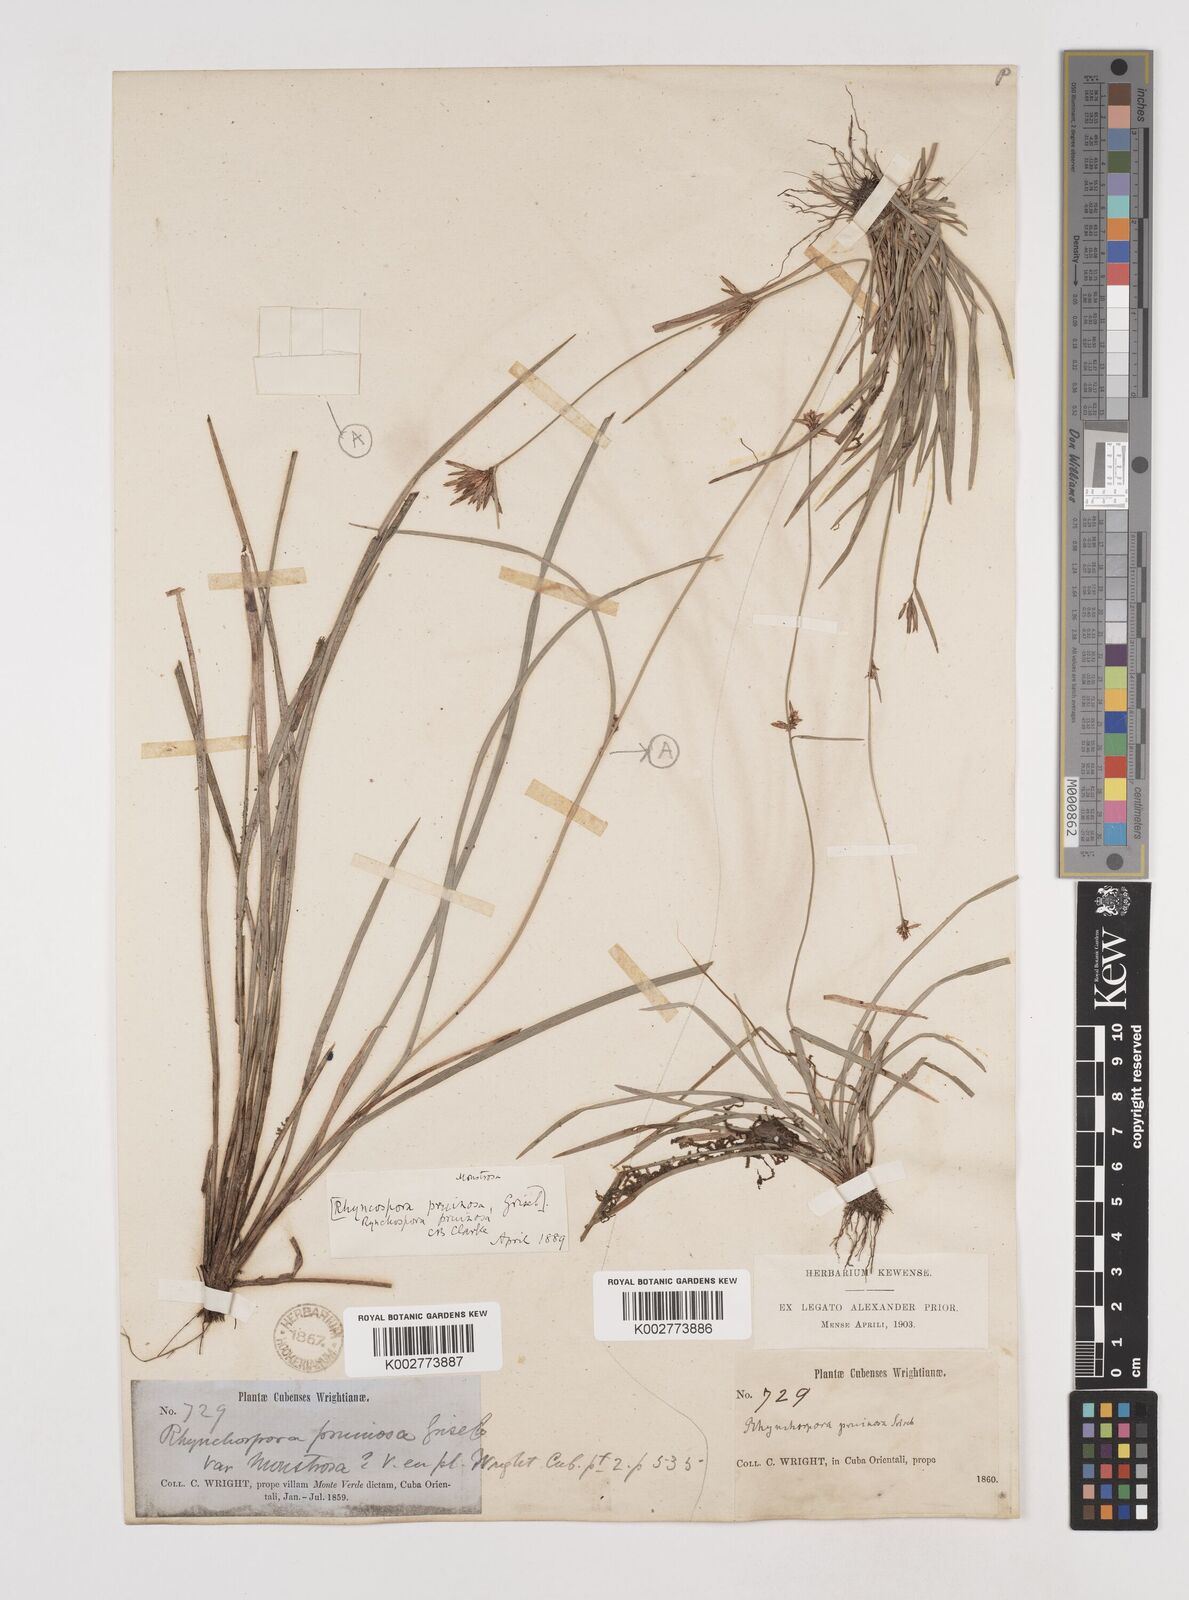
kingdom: Plantae
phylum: Tracheophyta
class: Liliopsida
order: Poales
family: Cyperaceae
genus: Rhynchospora
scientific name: Rhynchospora pruinosa
